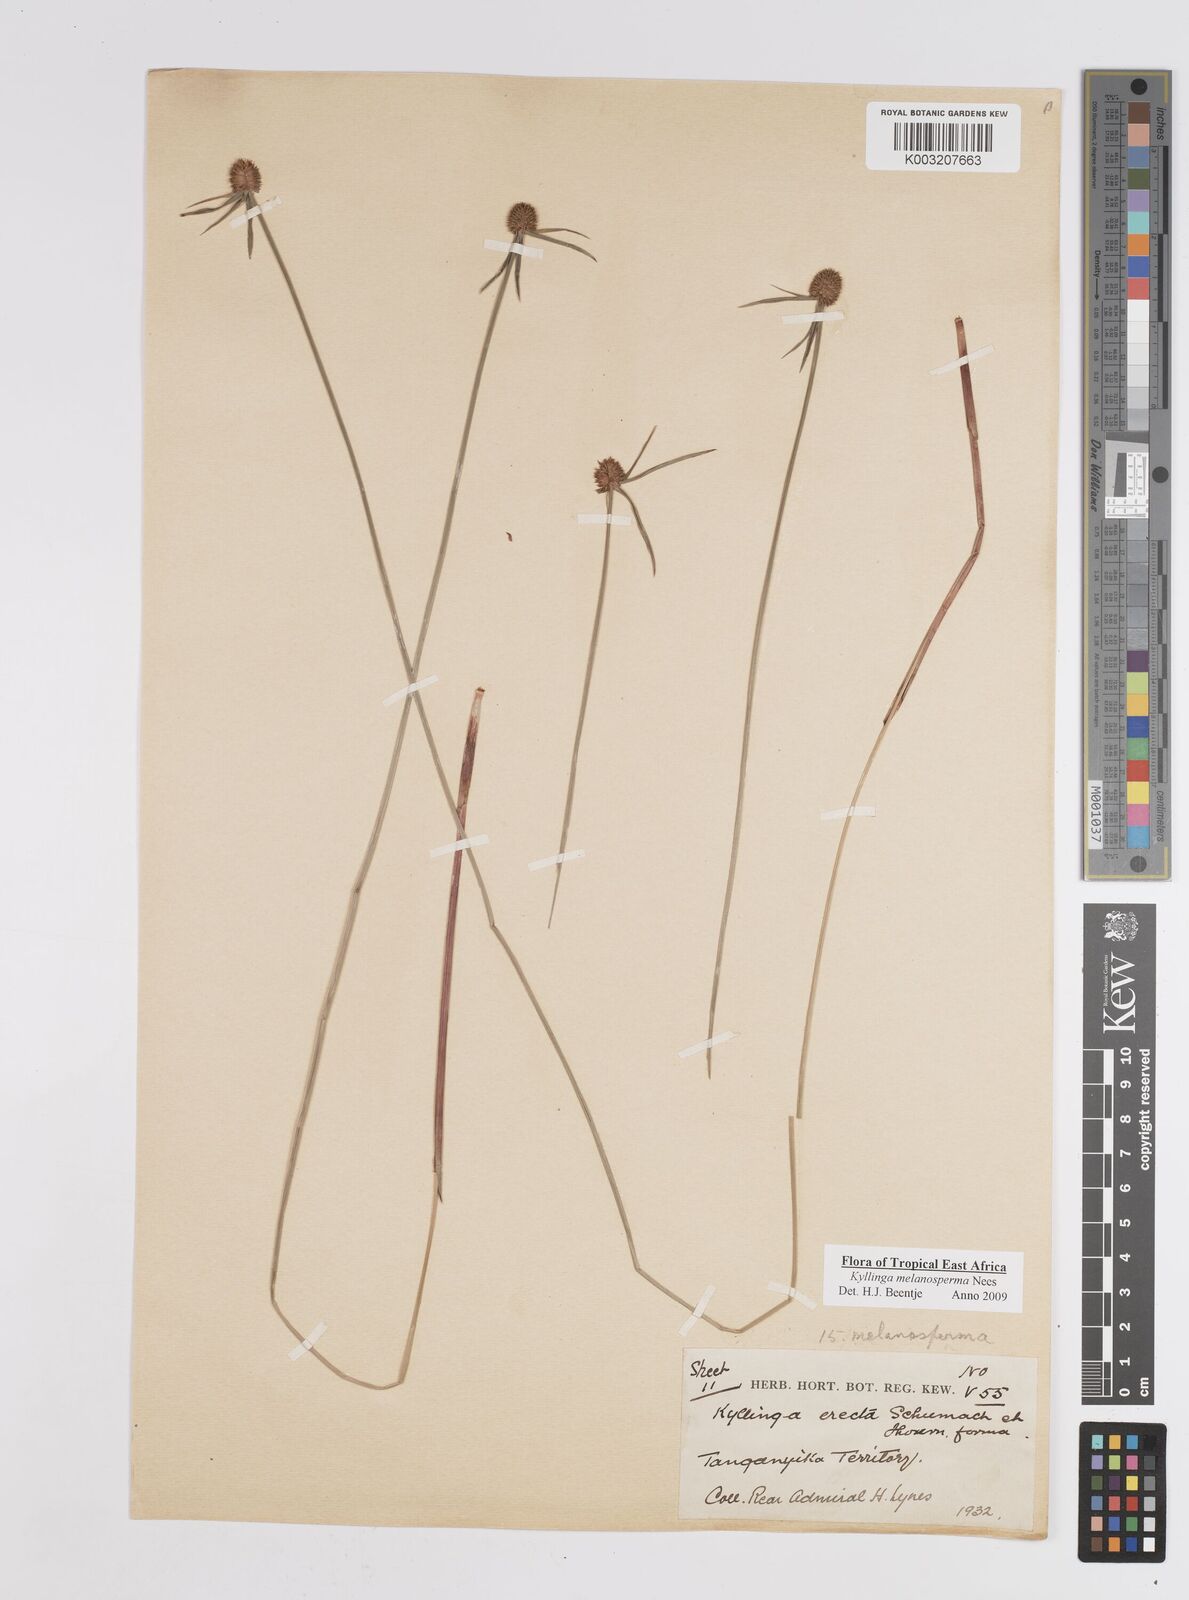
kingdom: Plantae
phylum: Tracheophyta
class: Liliopsida
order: Poales
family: Cyperaceae
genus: Cyperus
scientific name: Cyperus melanospermus
